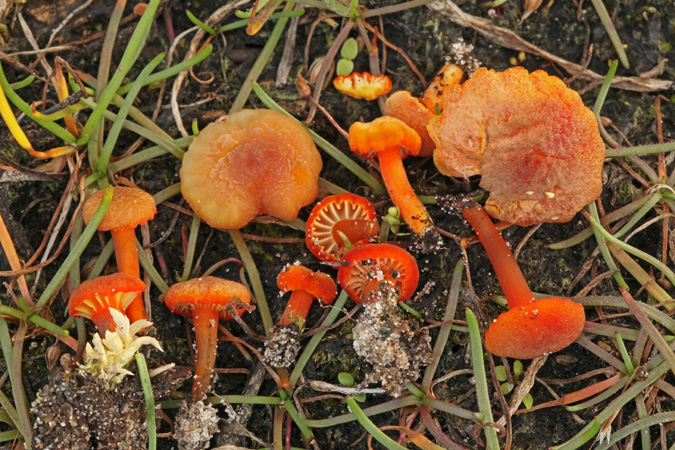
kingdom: Fungi
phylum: Basidiomycota
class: Agaricomycetes
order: Agaricales
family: Hygrophoraceae
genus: Hygrocybe
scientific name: Hygrocybe coccineocrenata
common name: tørvemos-vokshat
